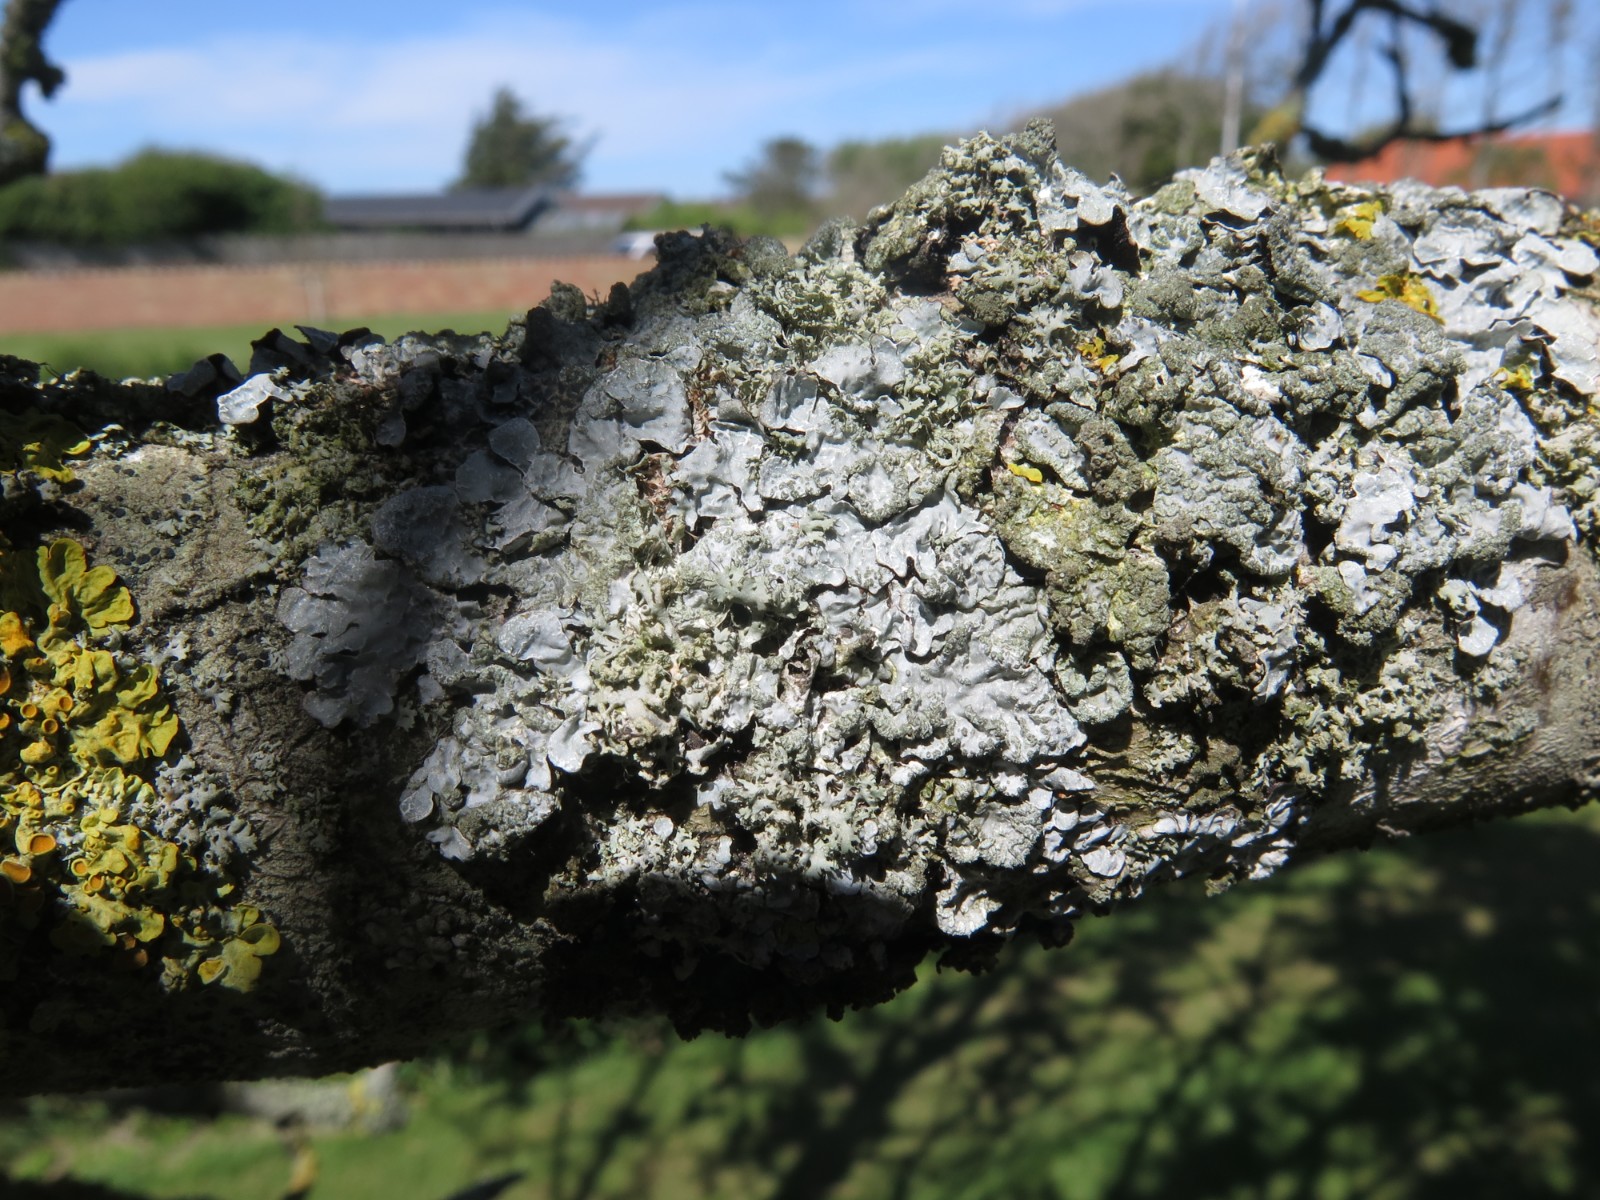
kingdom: Fungi
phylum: Ascomycota
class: Lecanoromycetes
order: Lecanorales
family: Parmeliaceae
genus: Parmelia
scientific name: Parmelia sulcata
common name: rynket skållav
